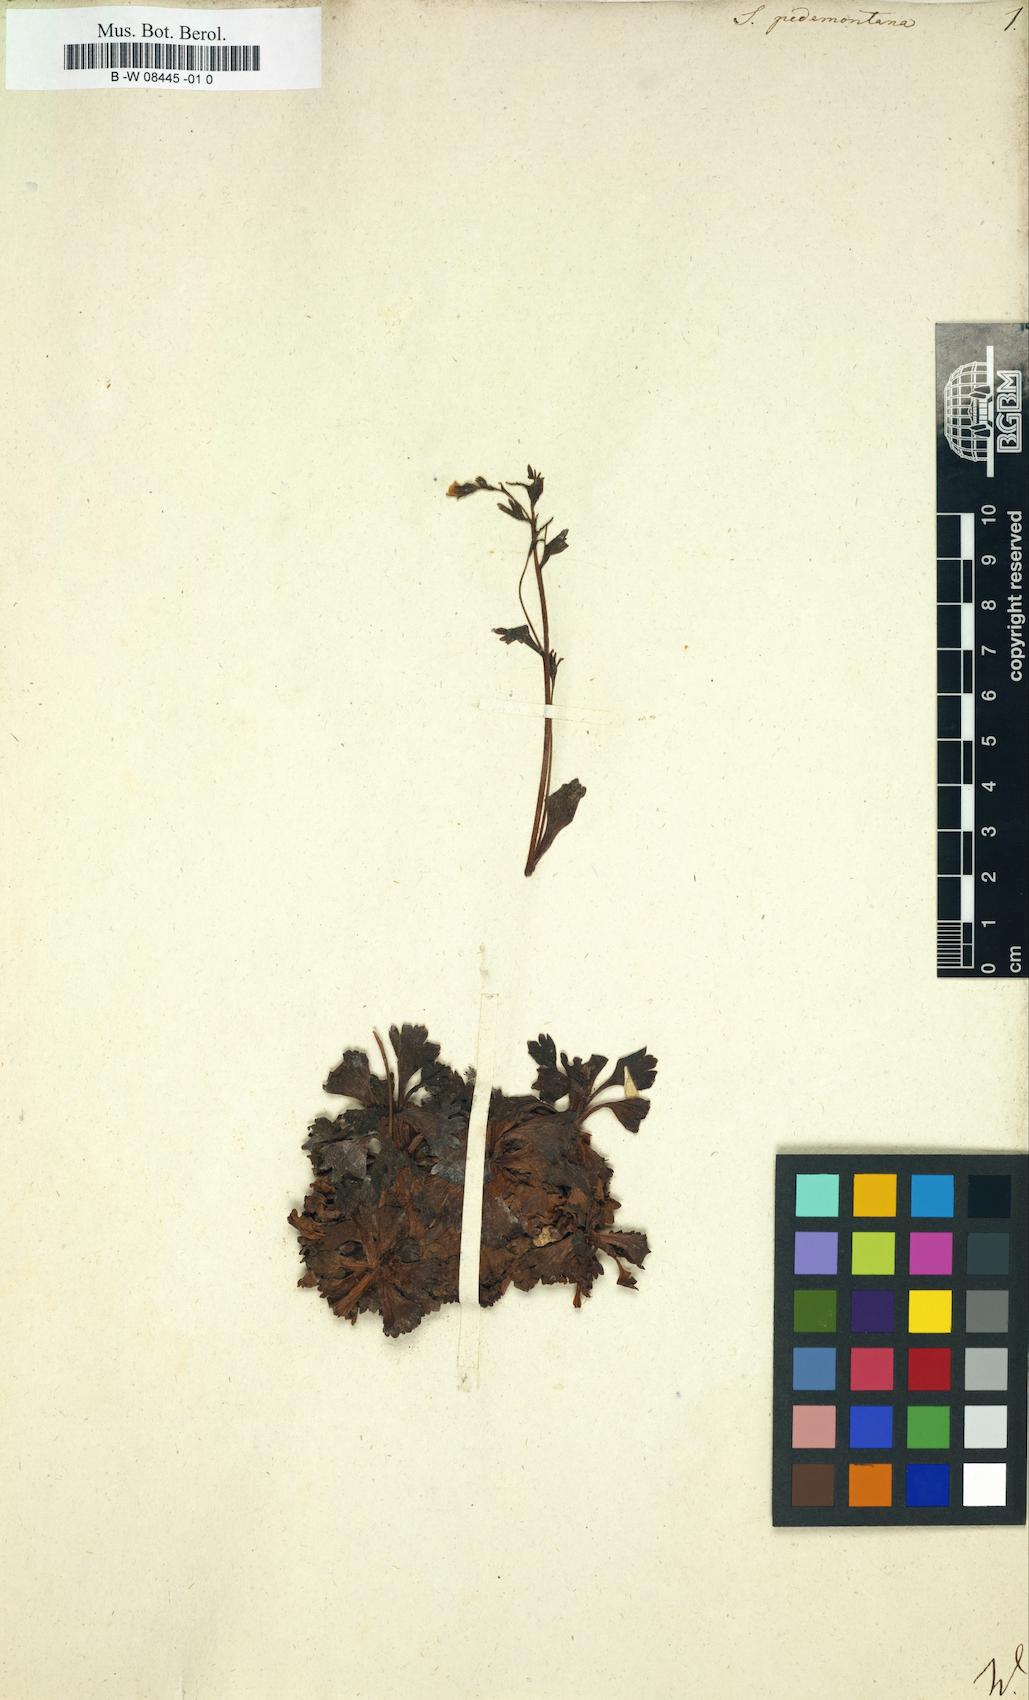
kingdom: Plantae
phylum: Tracheophyta
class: Magnoliopsida
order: Saxifragales
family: Saxifragaceae
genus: Saxifraga
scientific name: Saxifraga pedemontana
